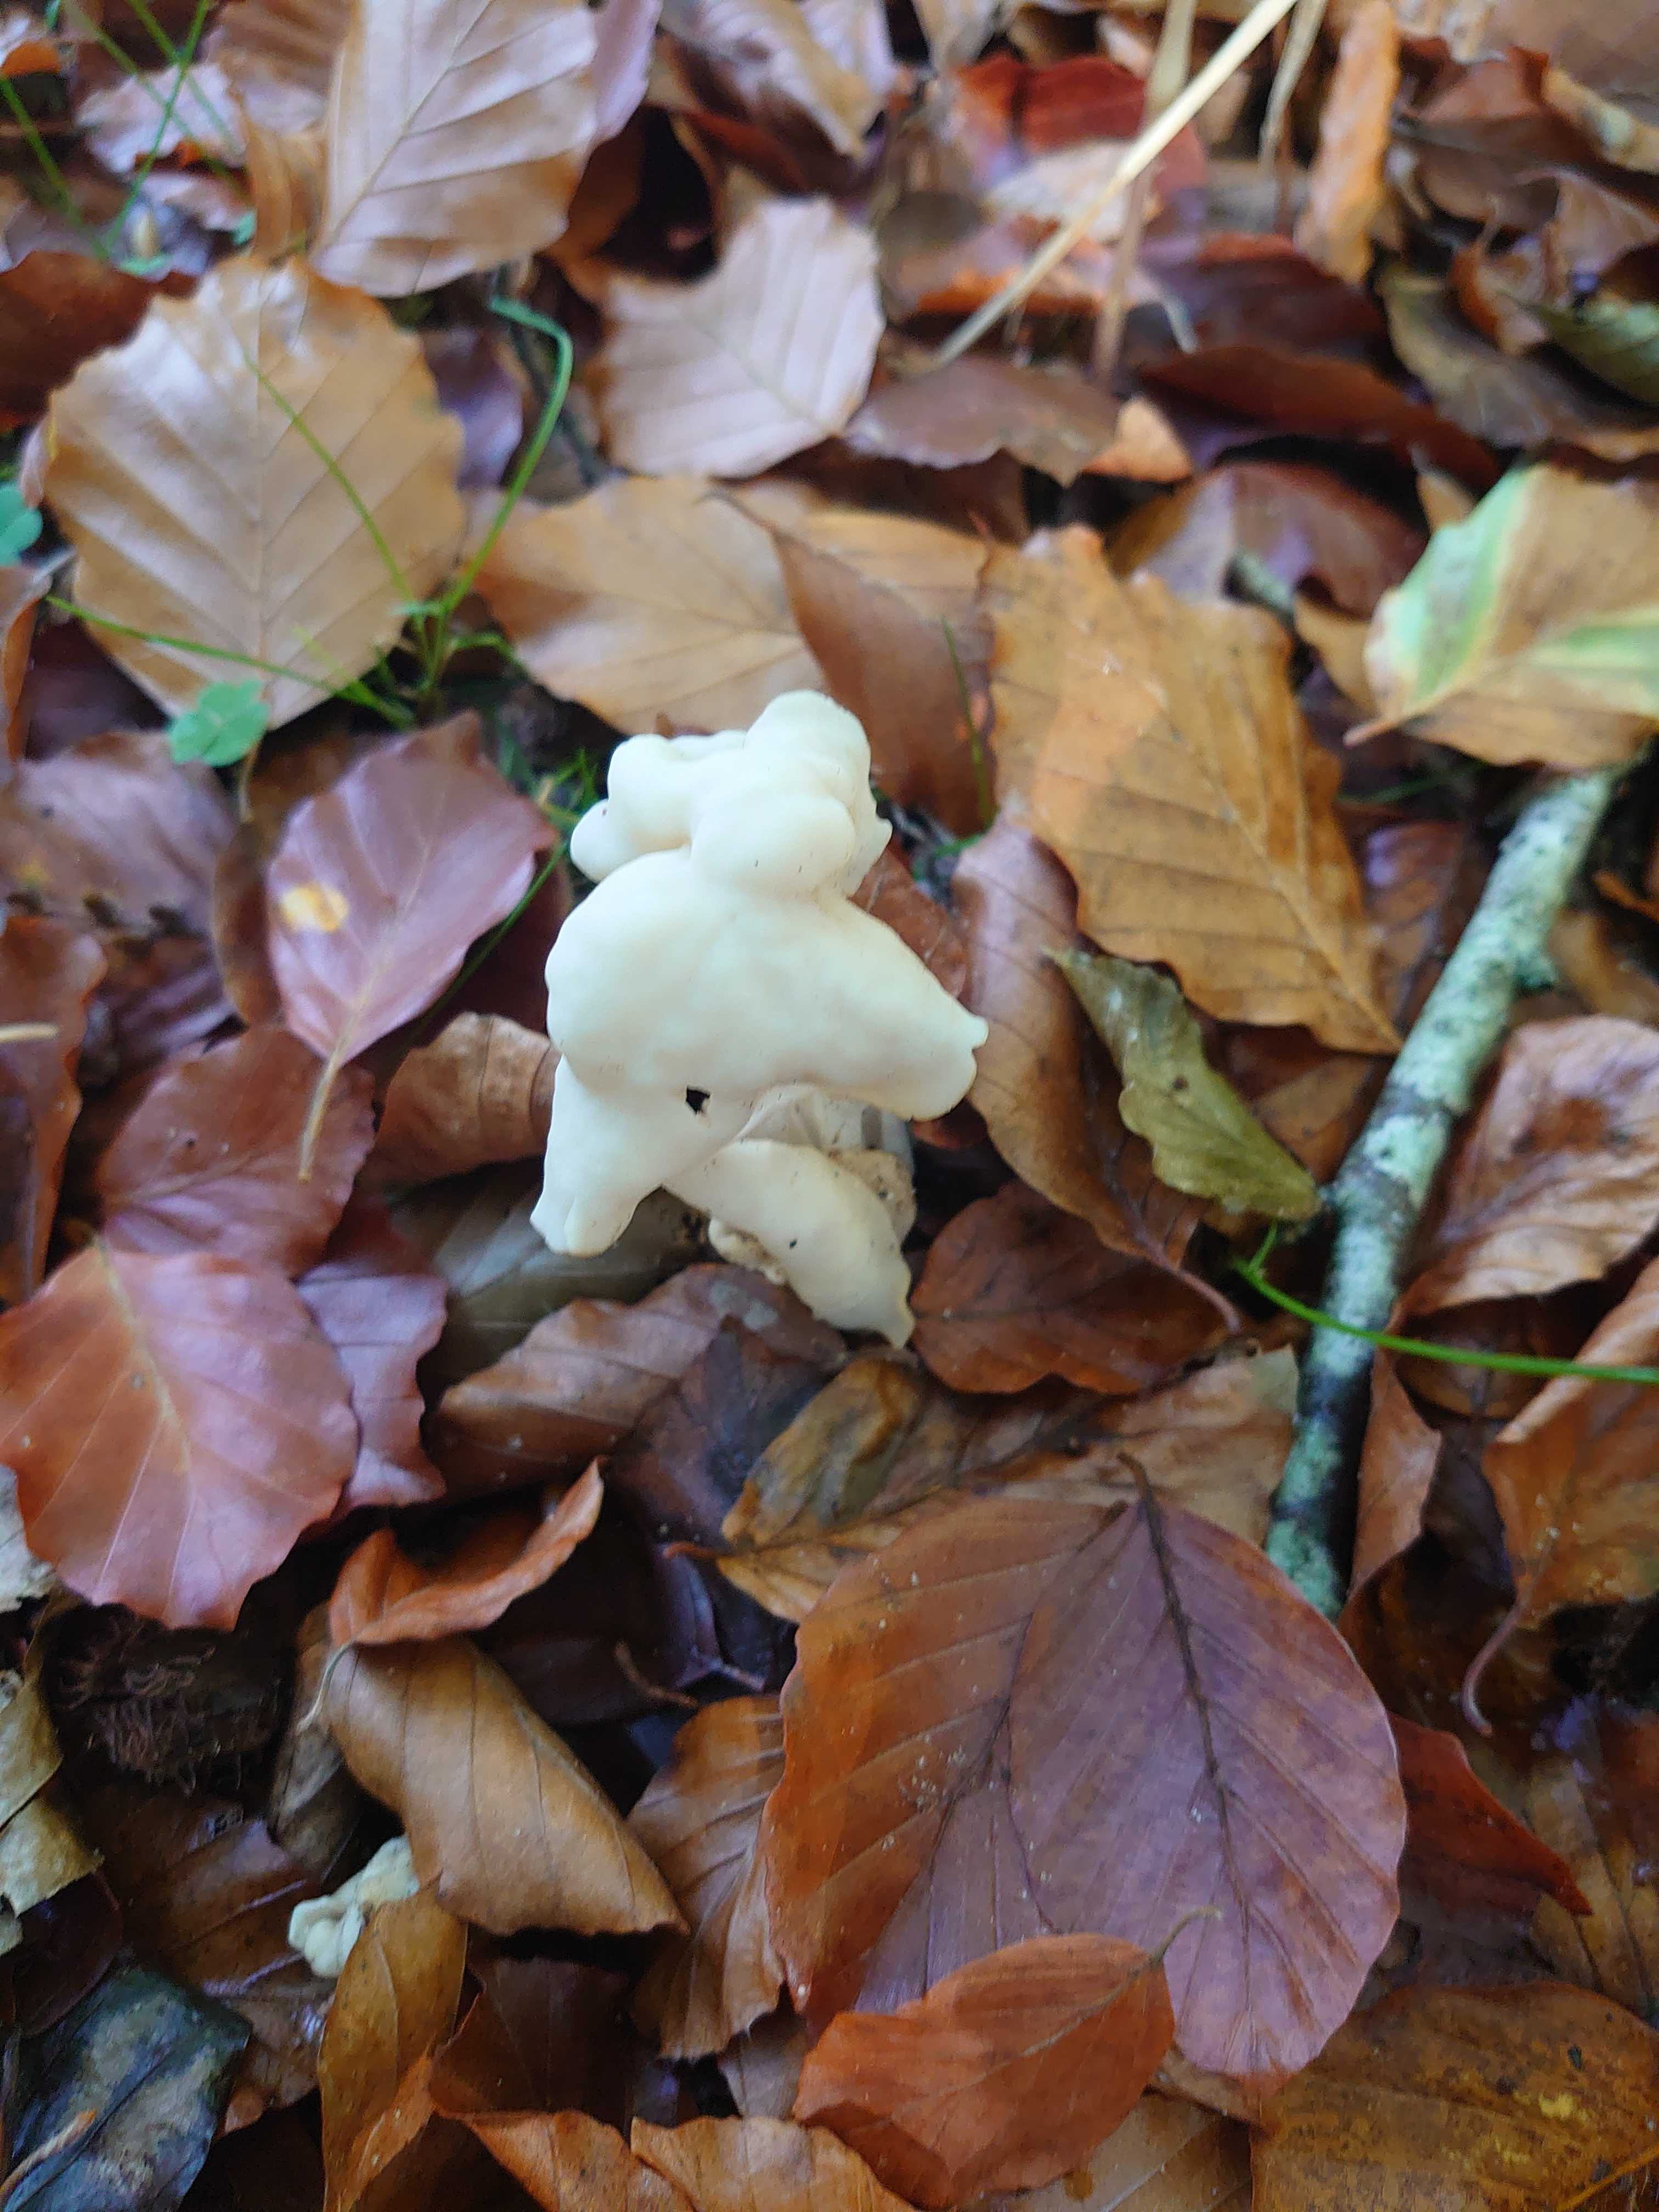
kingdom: Fungi
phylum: Ascomycota
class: Pezizomycetes
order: Pezizales
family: Helvellaceae
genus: Helvella
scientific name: Helvella crispa
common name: kruset foldhat
